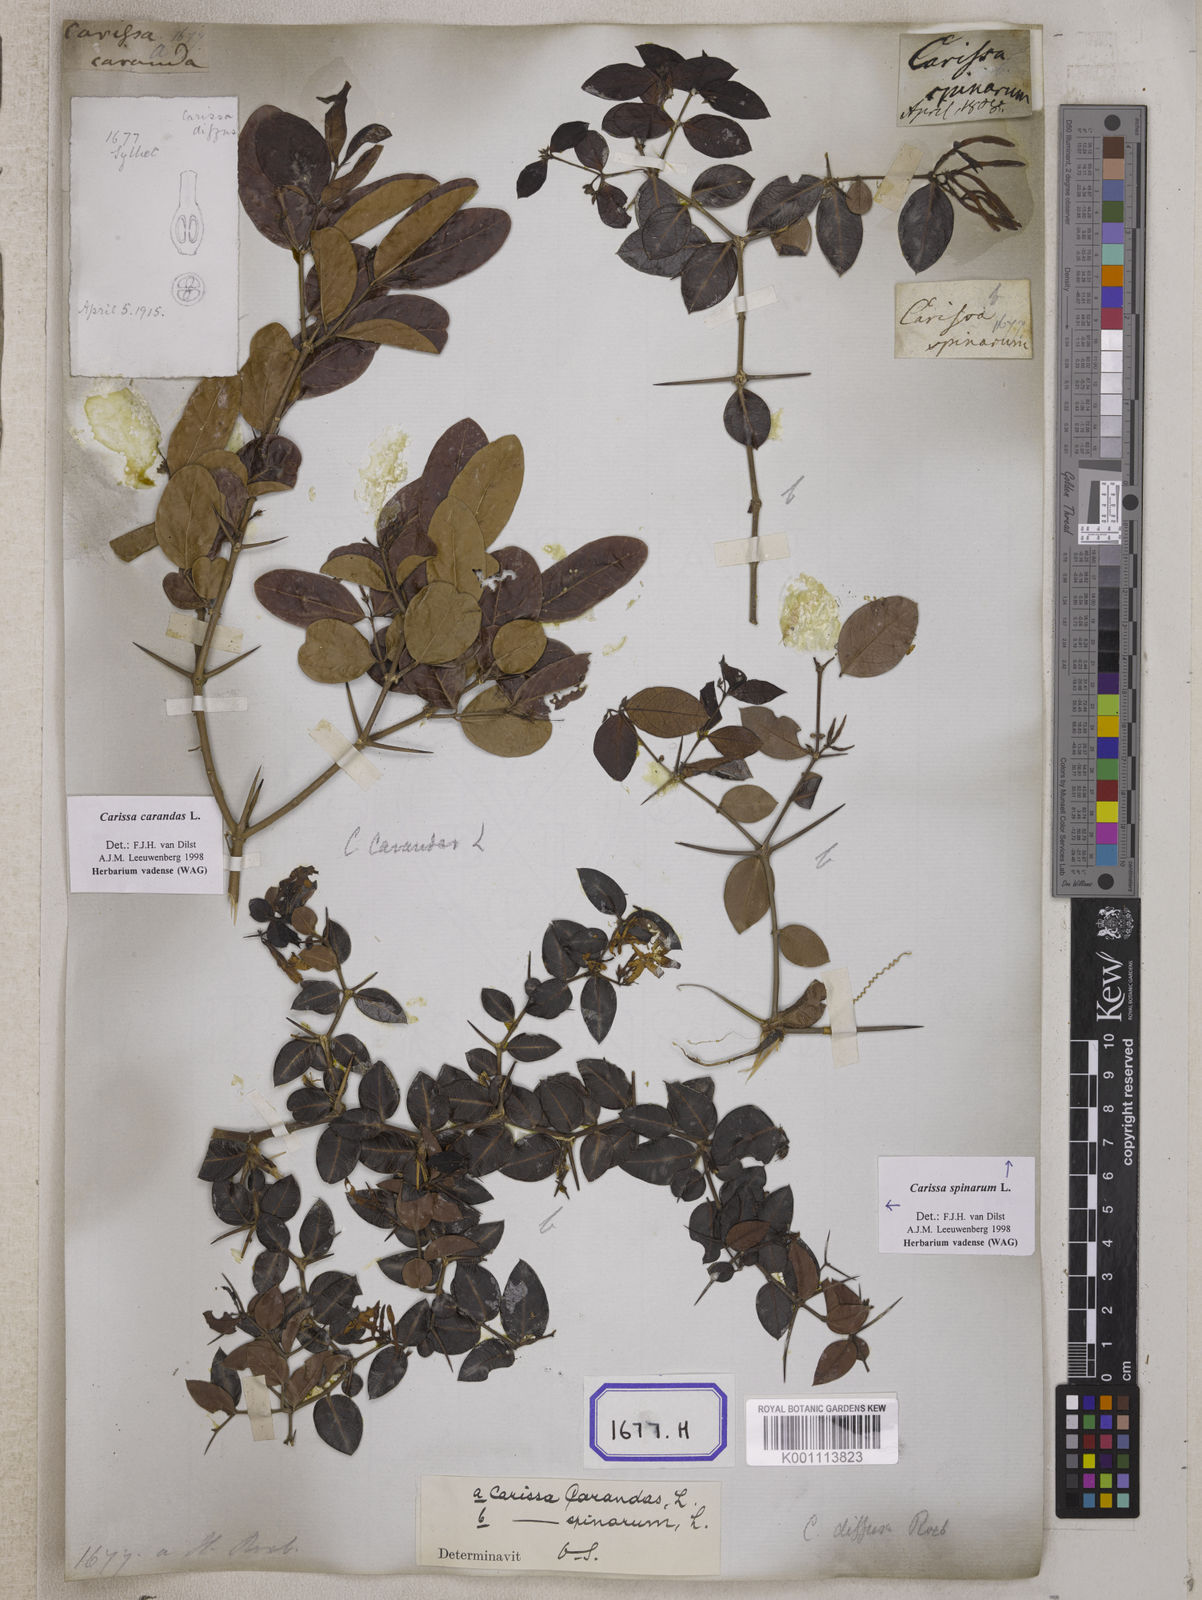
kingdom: Plantae
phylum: Tracheophyta
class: Magnoliopsida
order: Gentianales
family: Apocynaceae
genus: Carissa
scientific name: Carissa carandas
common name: Karanda
